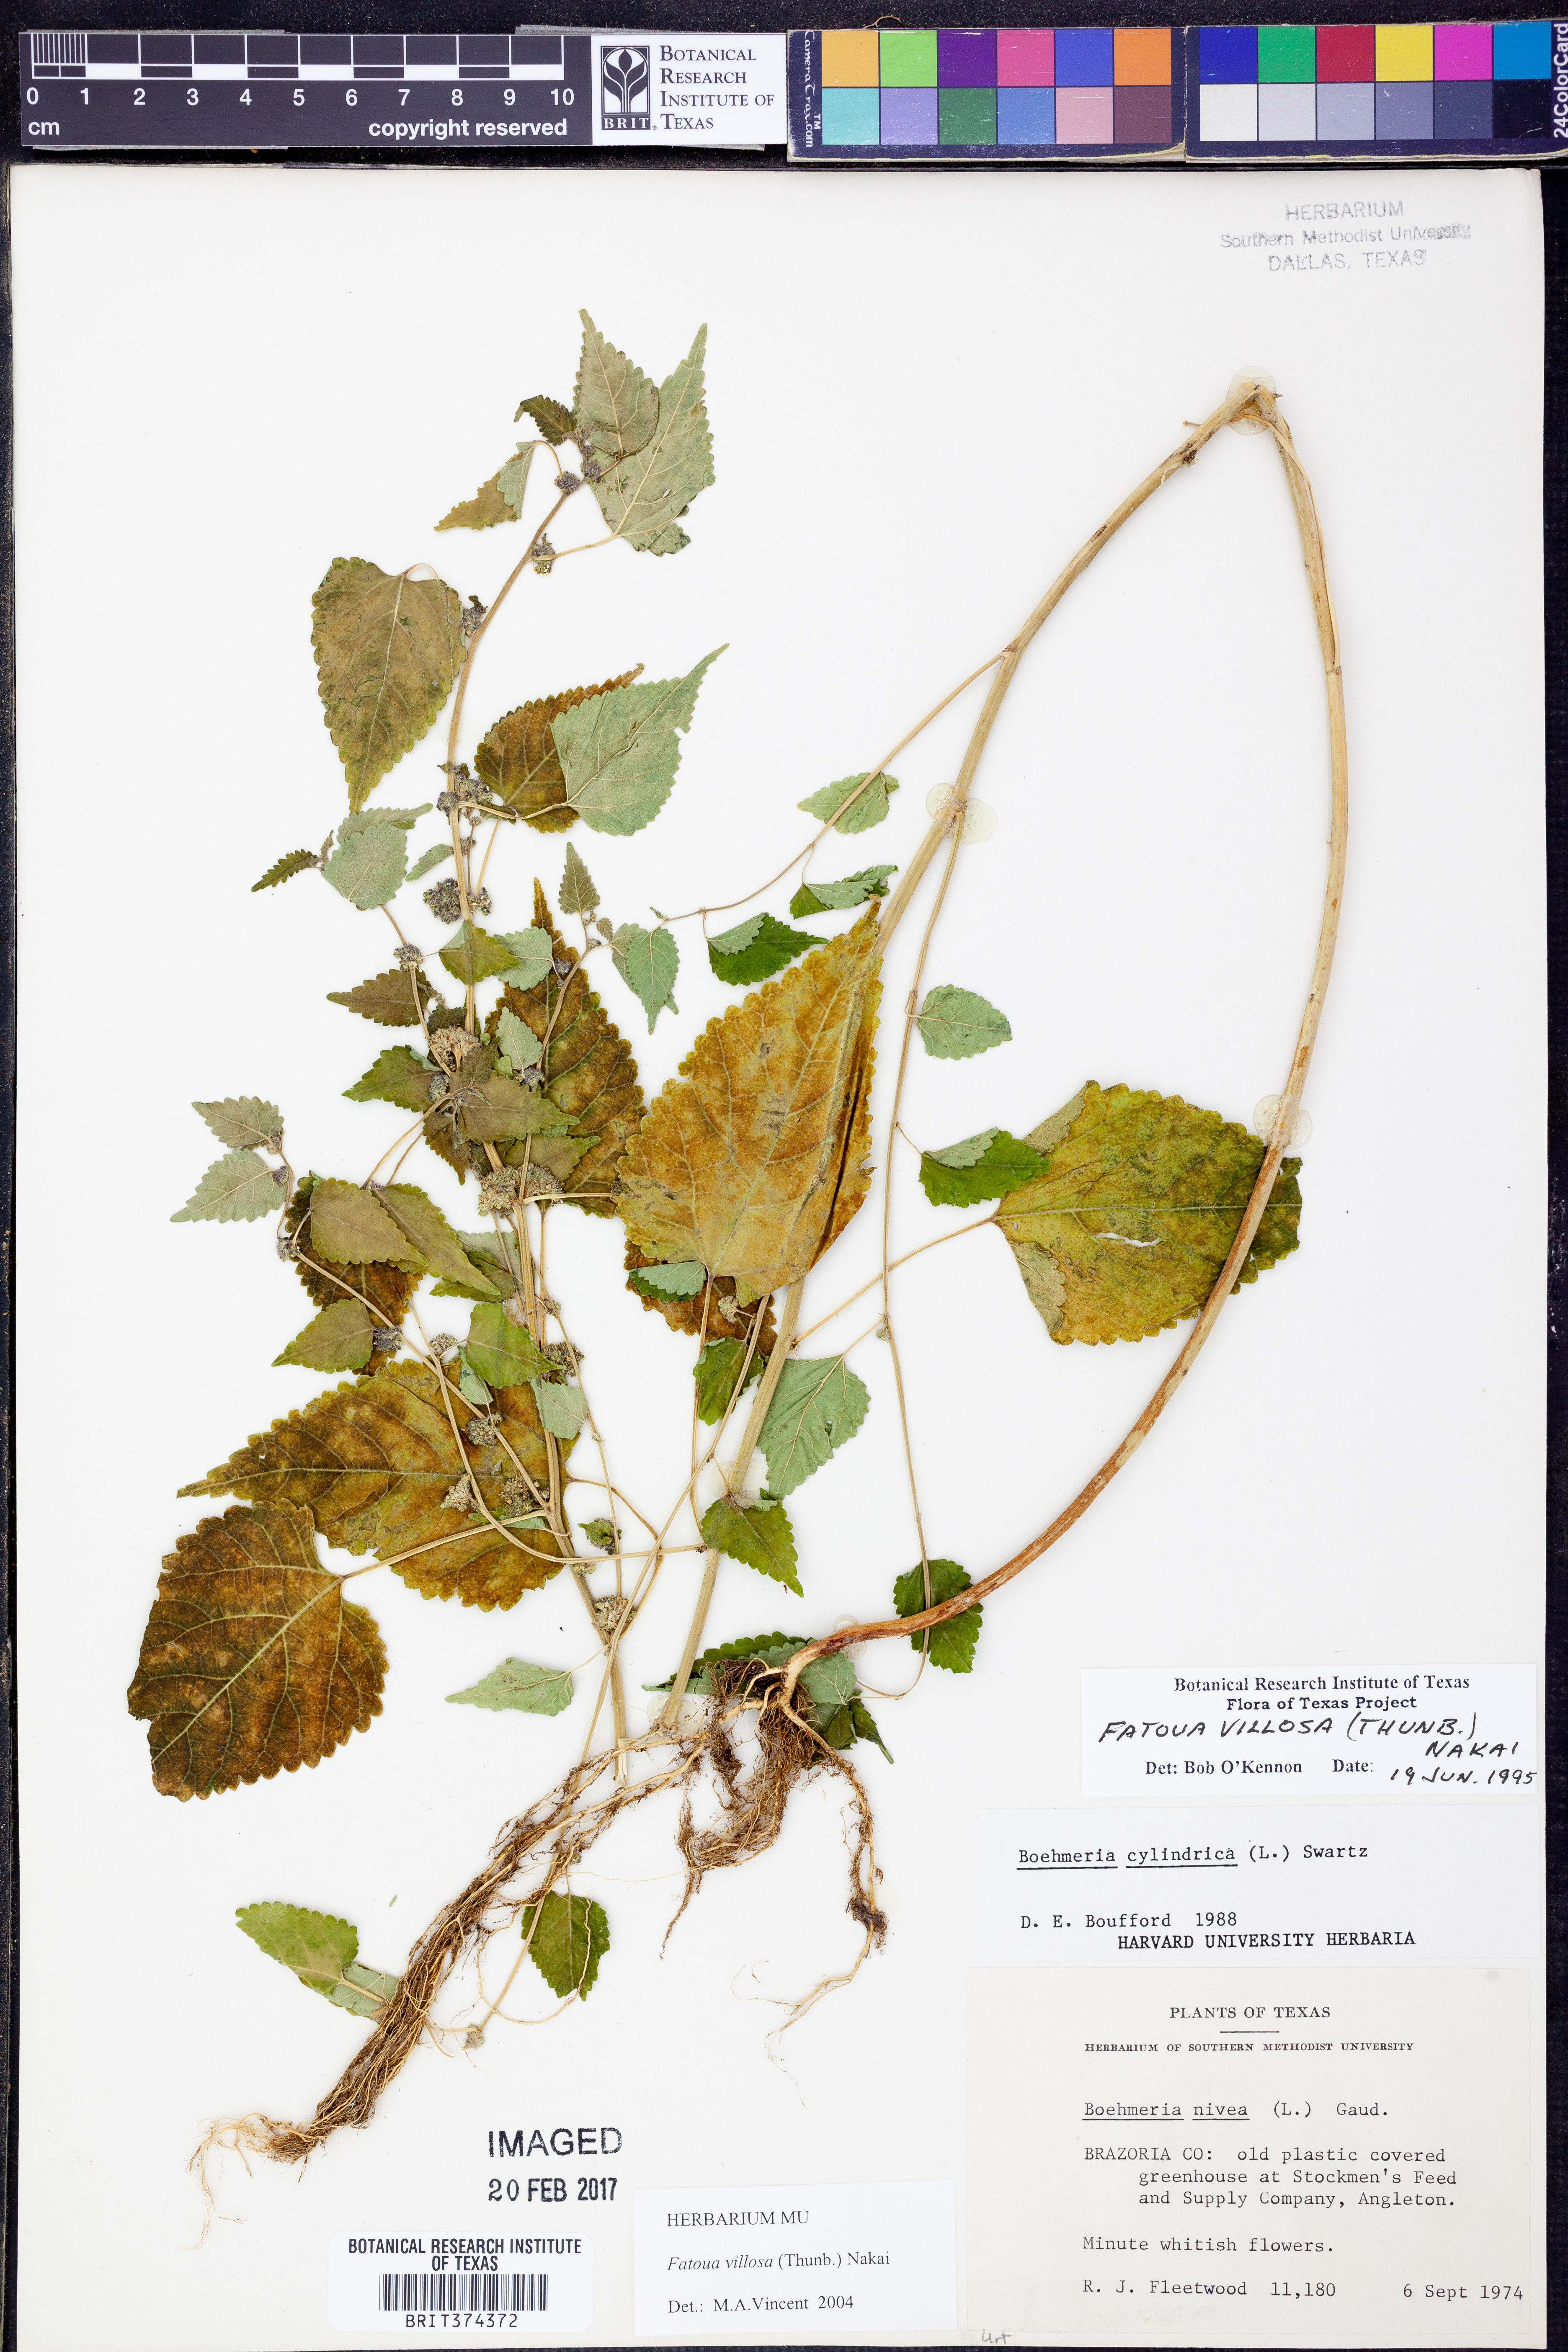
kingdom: Plantae
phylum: Tracheophyta
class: Magnoliopsida
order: Rosales
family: Moraceae
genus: Fatoua
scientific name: Fatoua villosa
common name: Hairy crabweed
